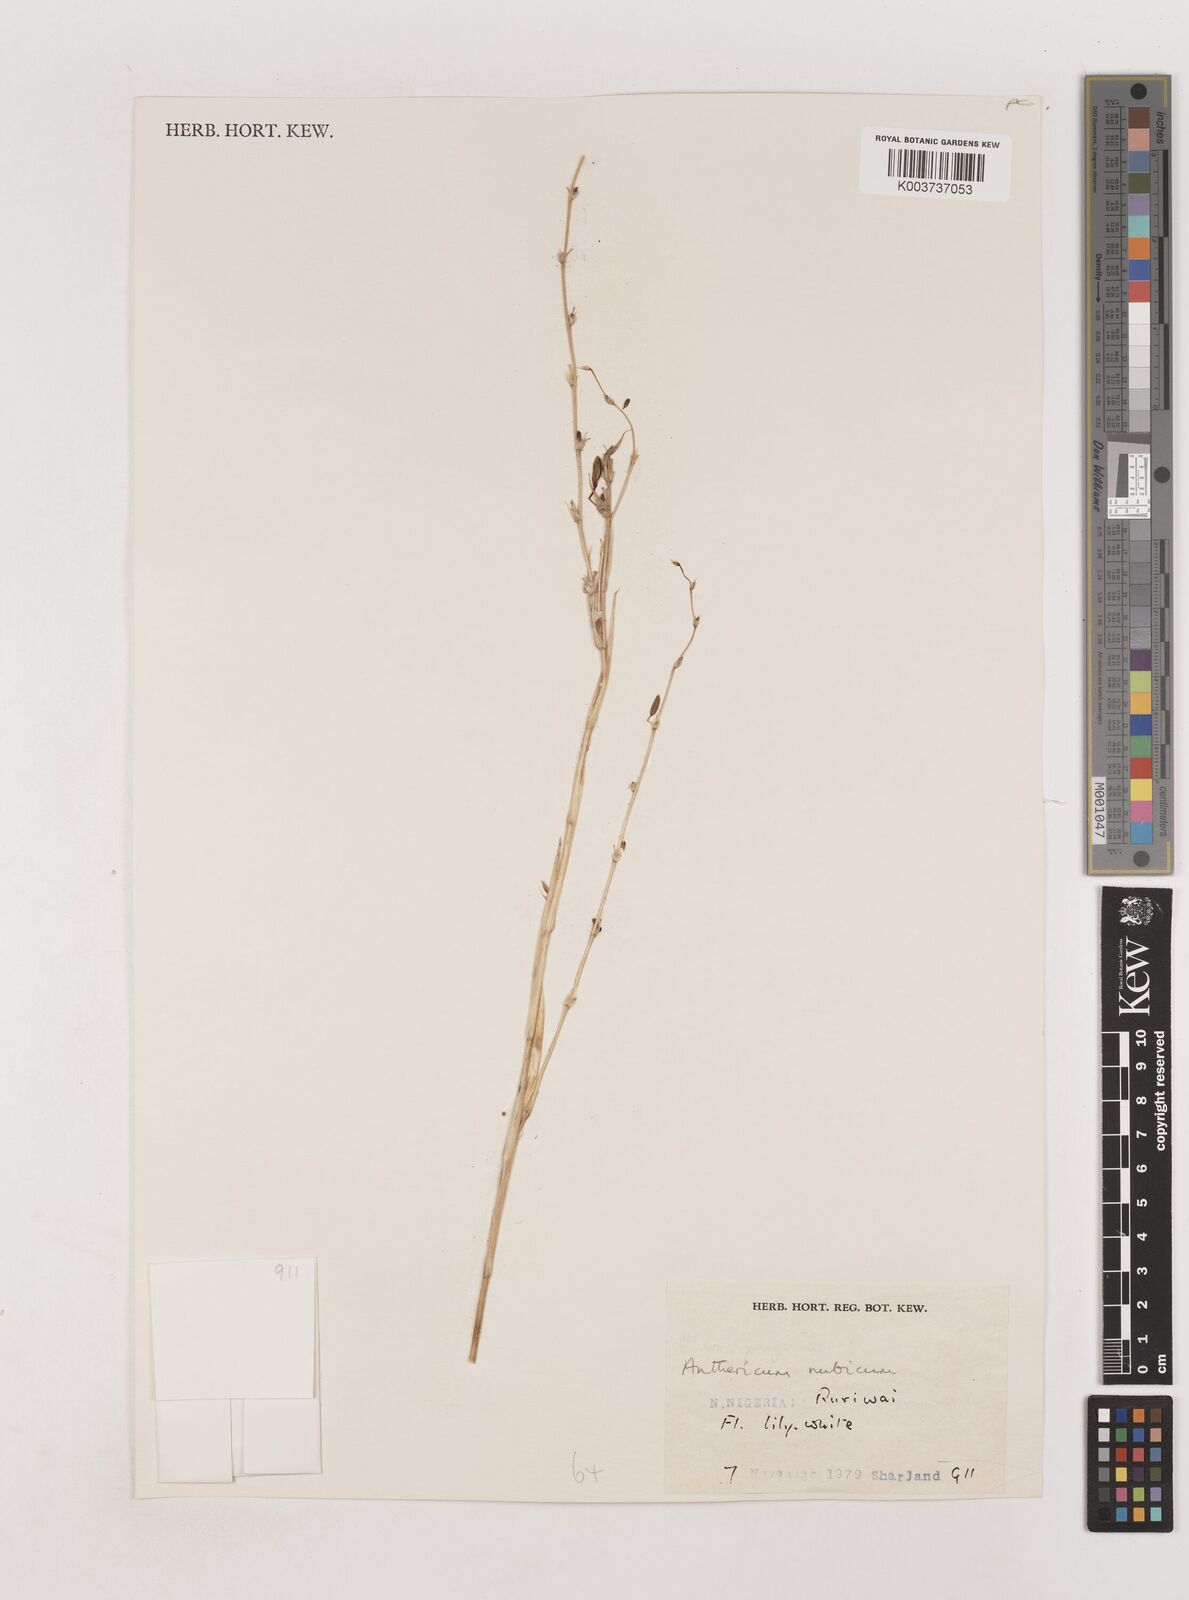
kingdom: Plantae
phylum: Tracheophyta
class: Liliopsida
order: Asparagales
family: Asparagaceae
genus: Chlorophytum
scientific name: Chlorophytum nubicum
